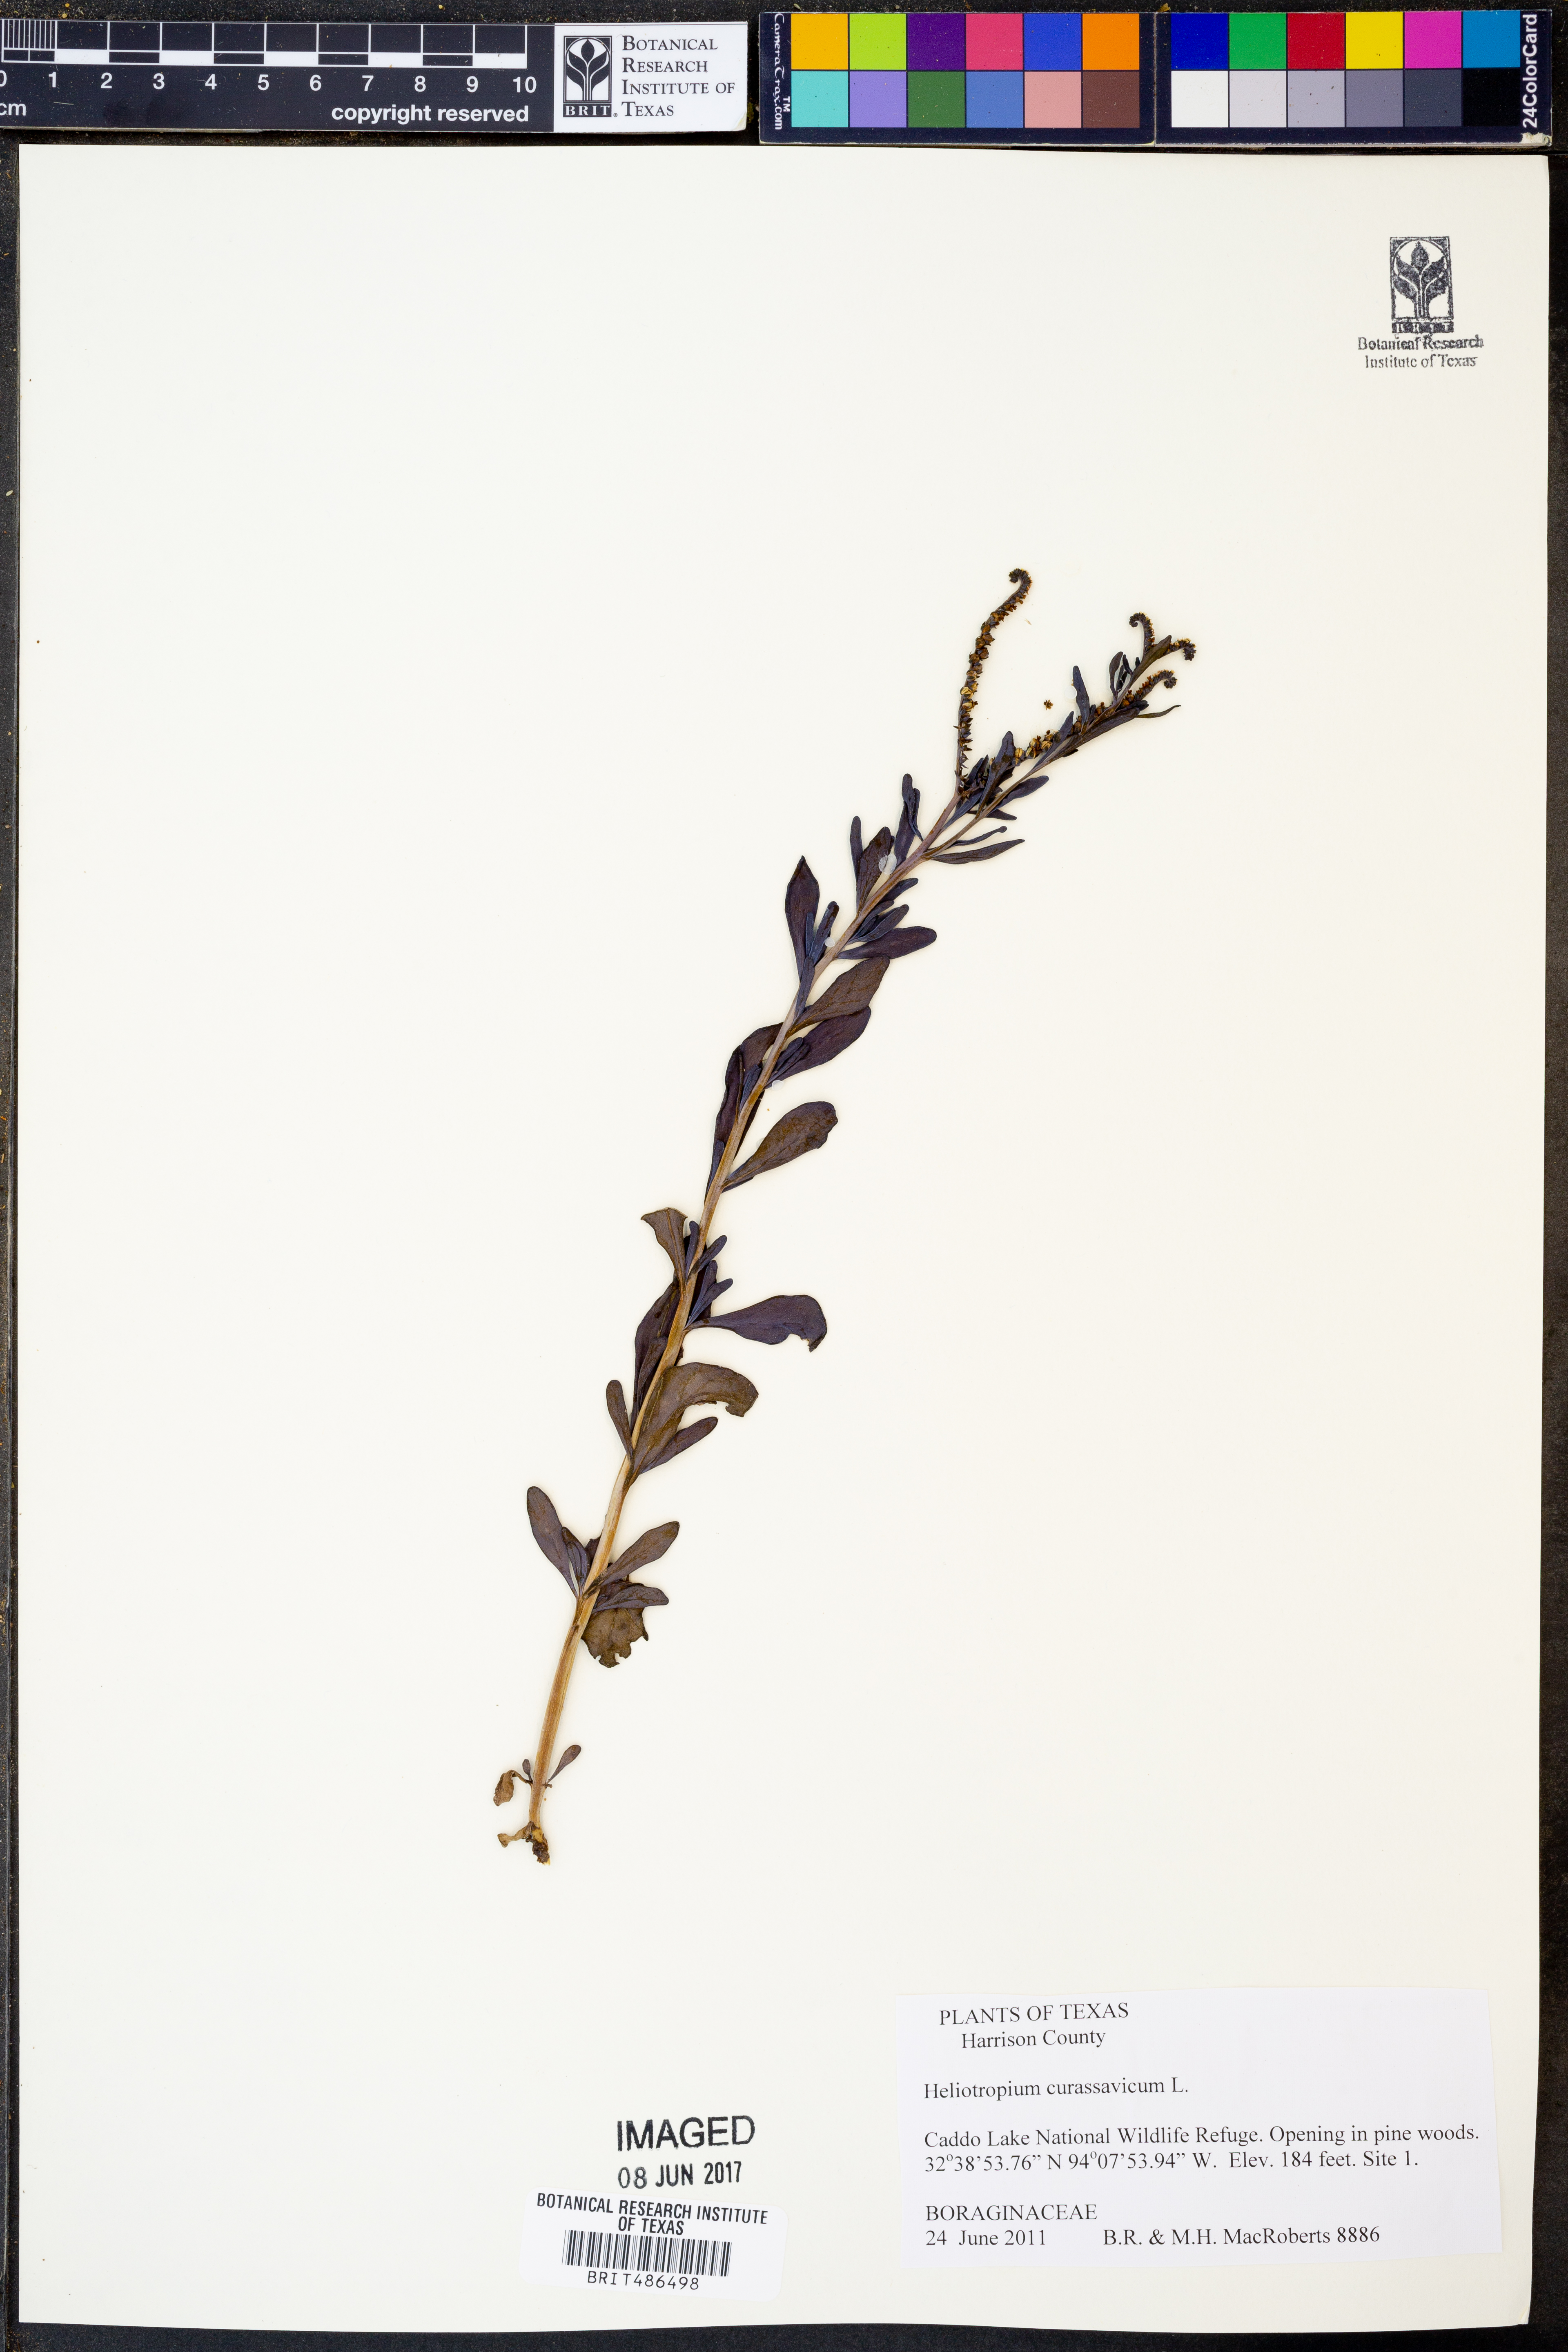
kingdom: Plantae
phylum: Tracheophyta
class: Magnoliopsida
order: Boraginales
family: Heliotropiaceae
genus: Heliotropium
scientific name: Heliotropium curassavicum
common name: Seaside heliotrope
